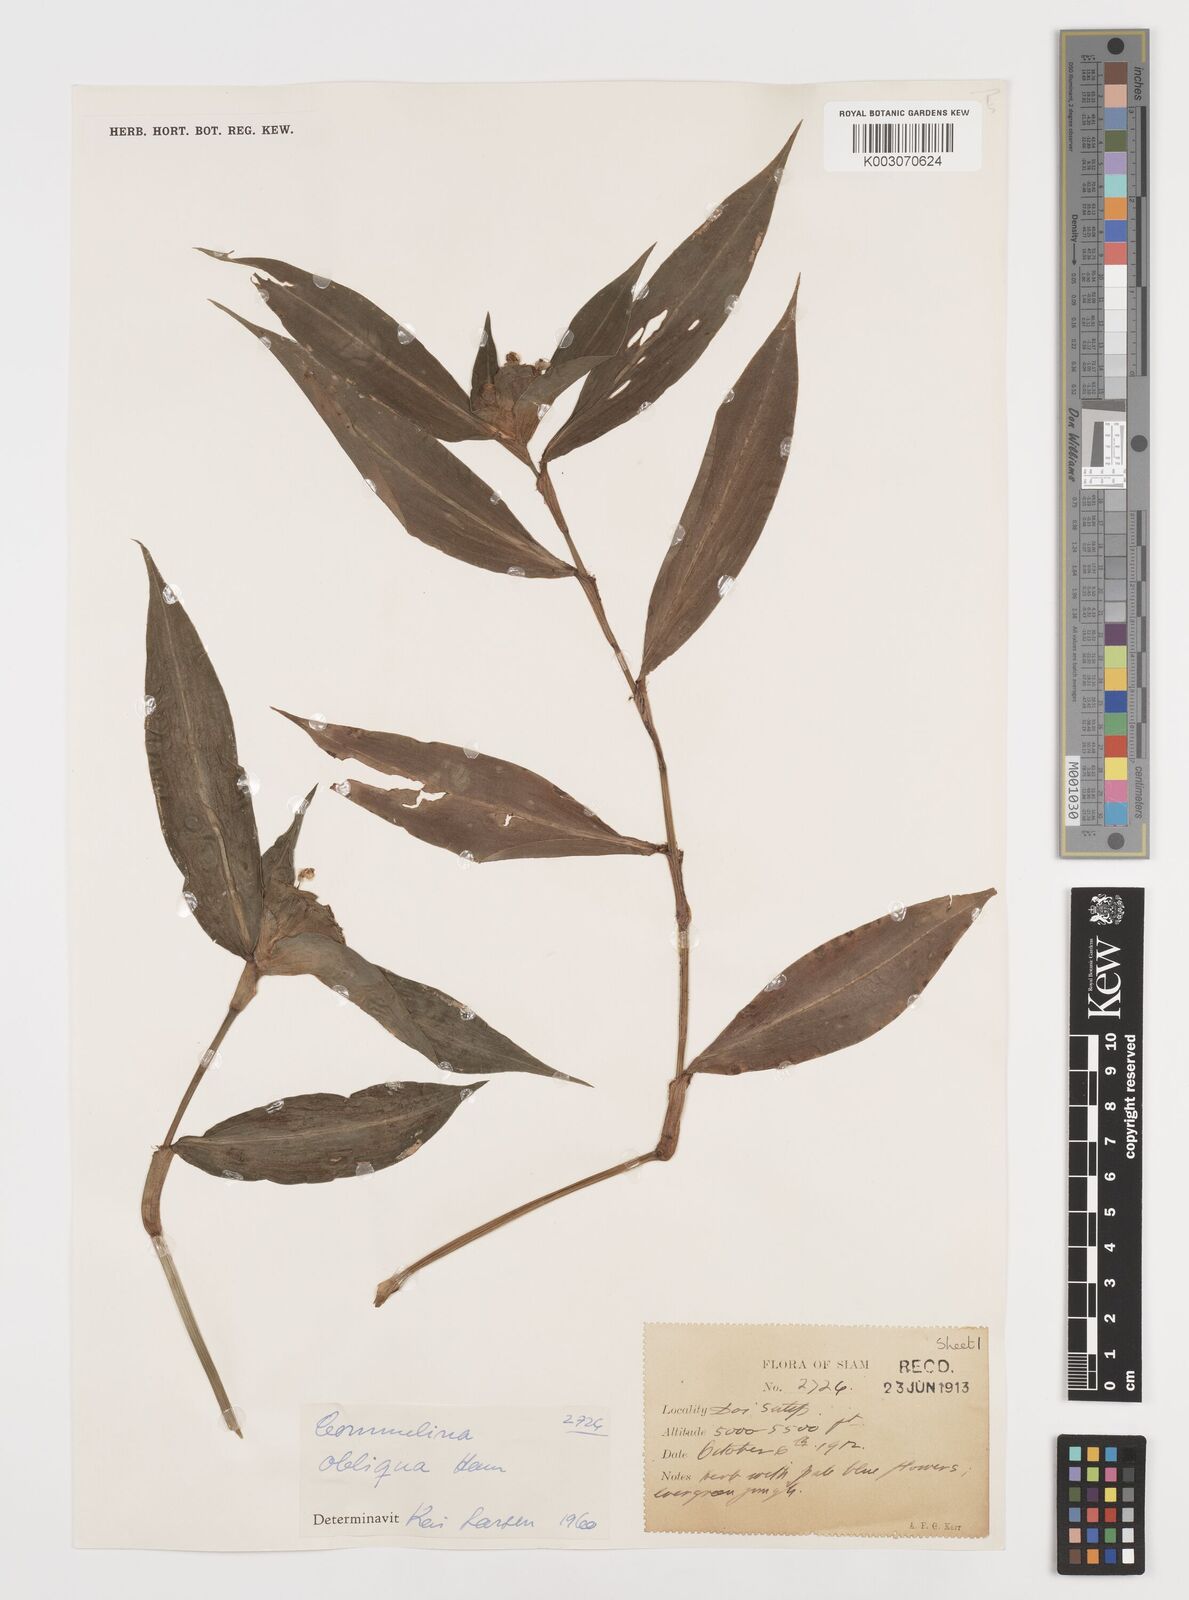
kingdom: Plantae
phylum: Tracheophyta
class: Liliopsida
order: Commelinales
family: Commelinaceae
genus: Commelina
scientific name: Commelina paludosa
